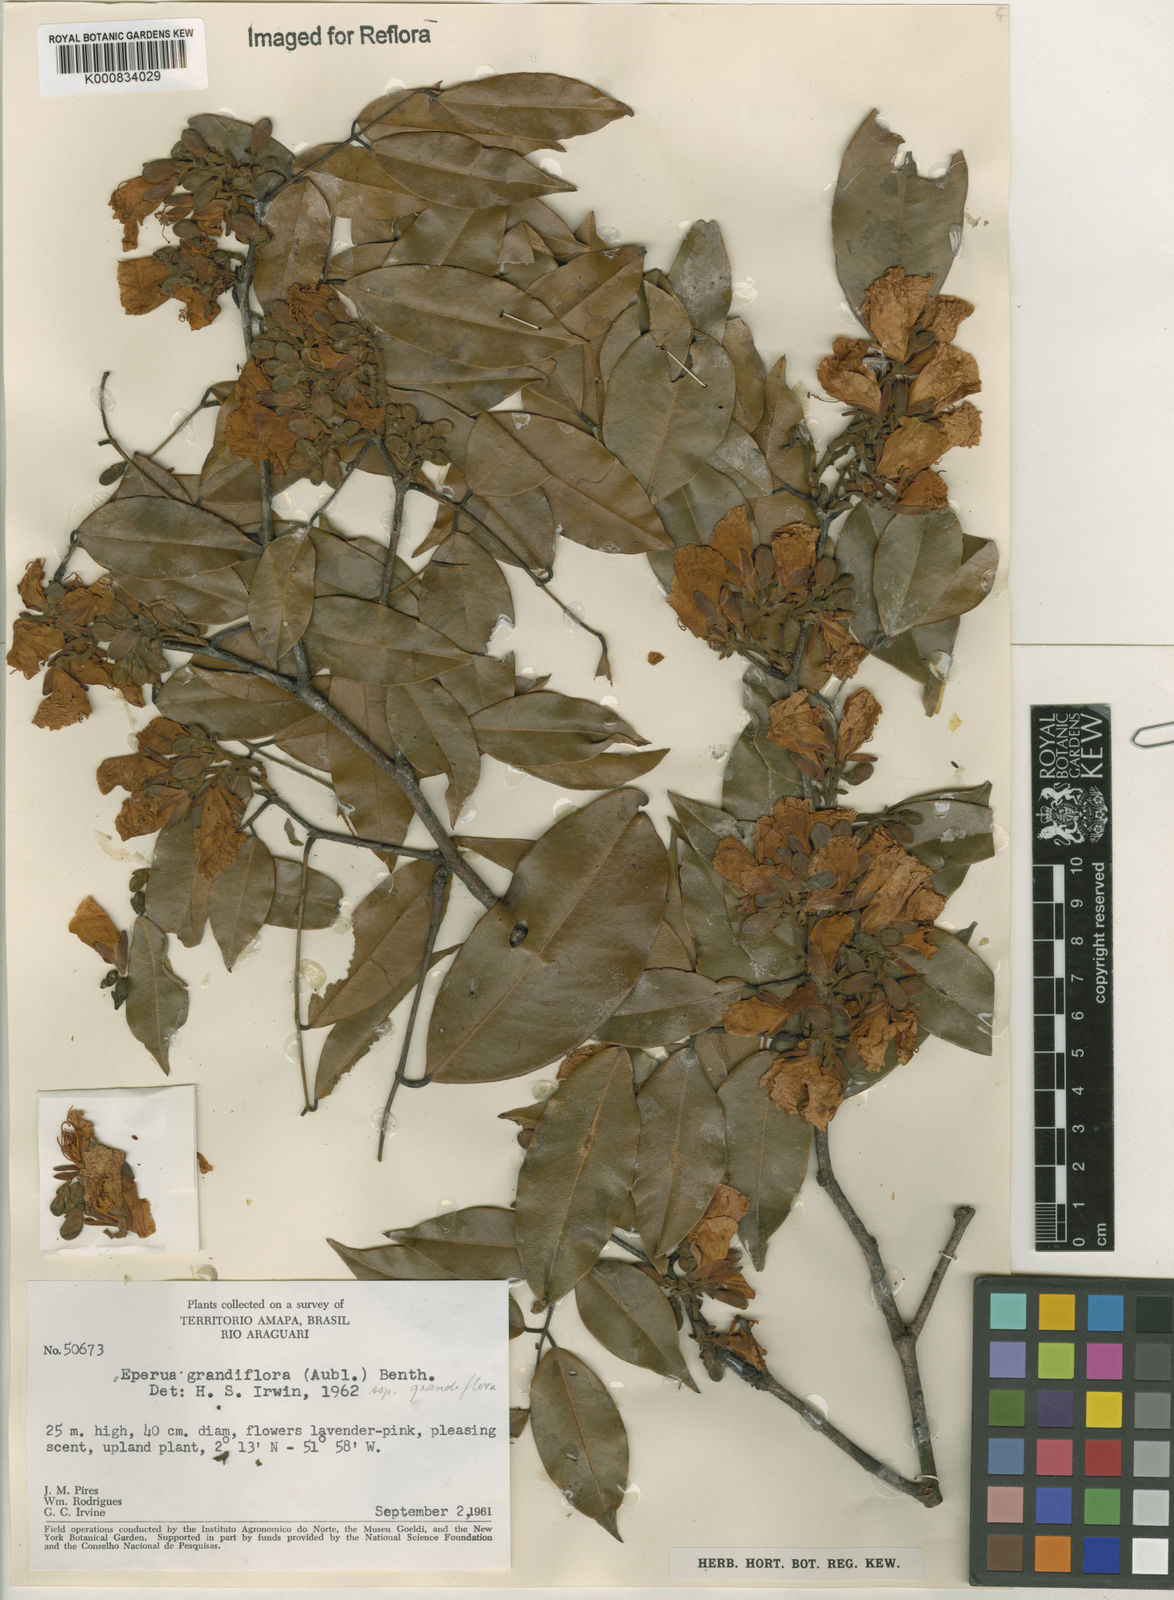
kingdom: Plantae
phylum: Tracheophyta
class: Magnoliopsida
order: Fabales
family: Fabaceae
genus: Eperua
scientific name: Eperua
